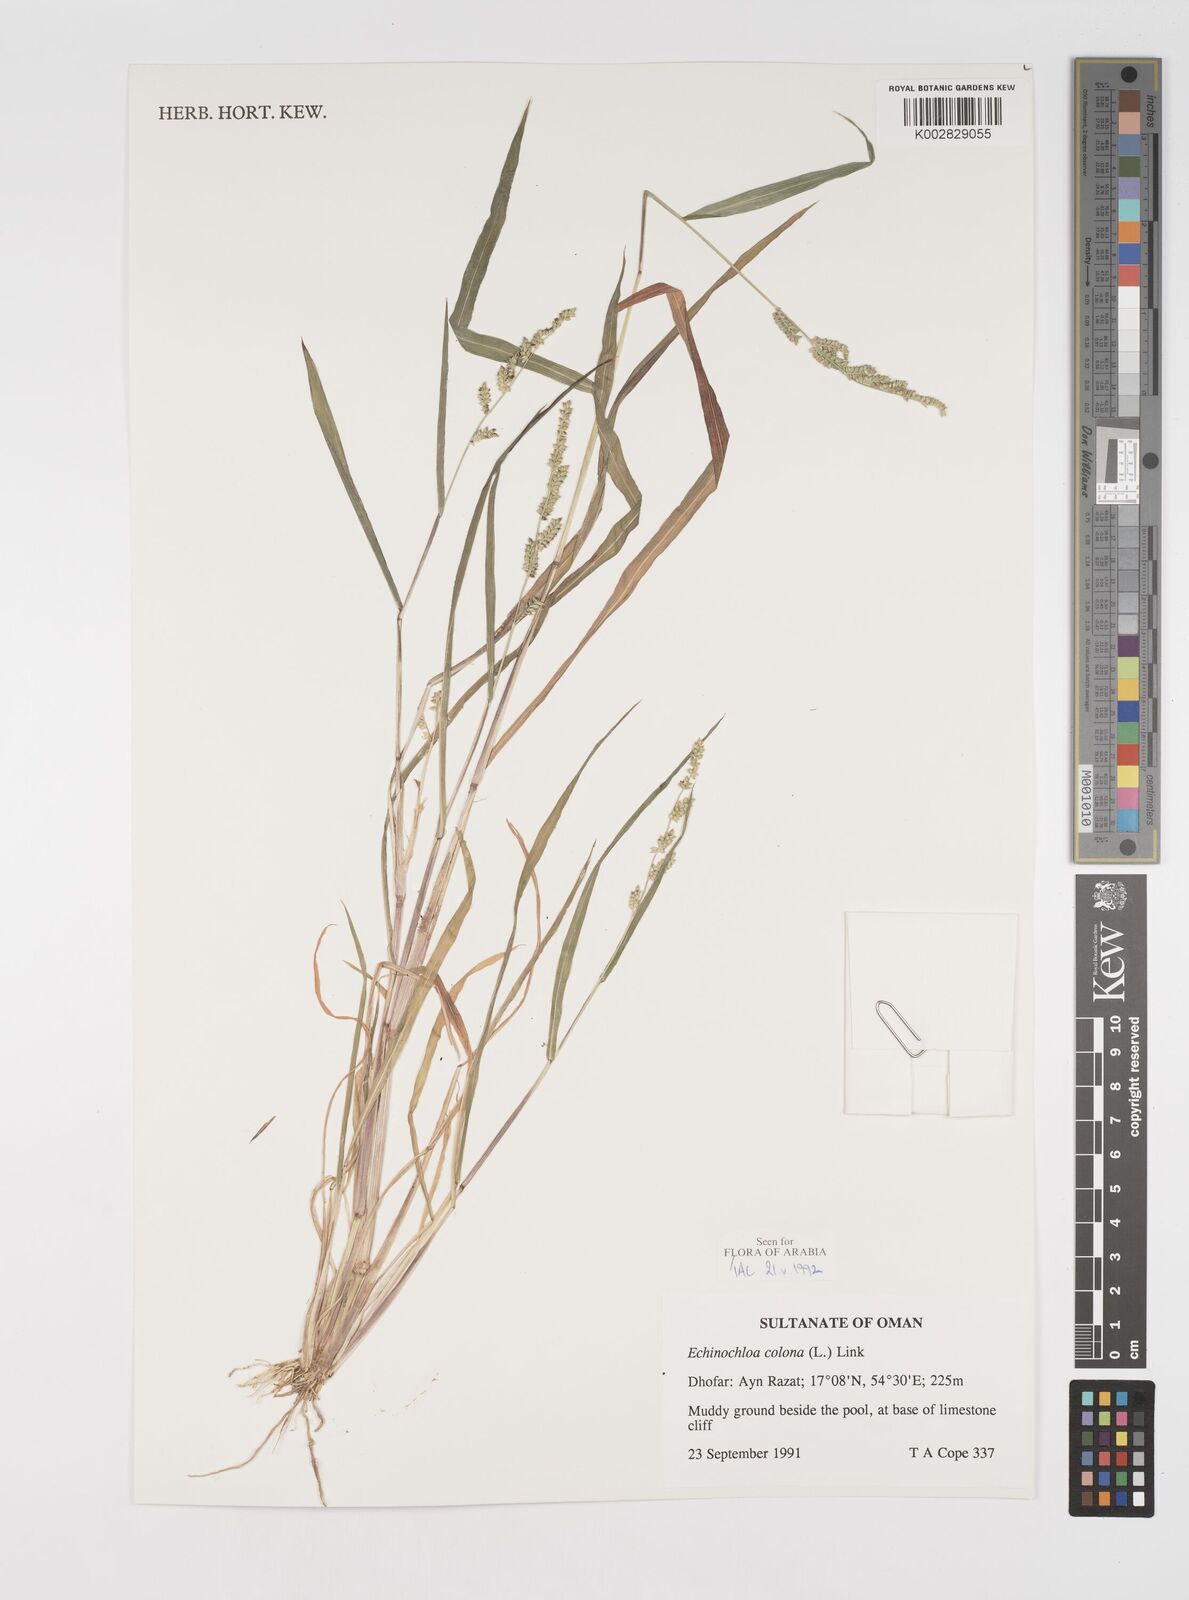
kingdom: Plantae
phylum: Tracheophyta
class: Liliopsida
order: Poales
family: Poaceae
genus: Echinochloa
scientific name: Echinochloa colonum
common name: Jungle rice
